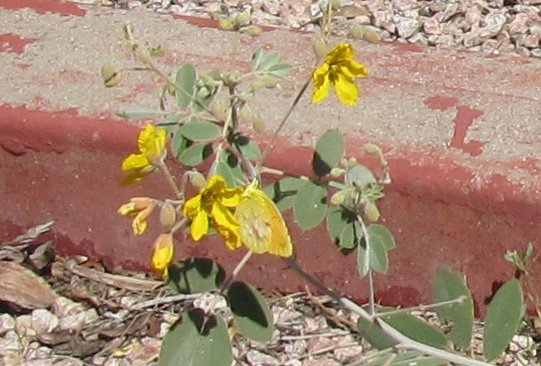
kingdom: Animalia
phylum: Arthropoda
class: Insecta
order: Lepidoptera
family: Pieridae
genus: Colias
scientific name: Colias eurytheme
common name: Orange Sulphur
